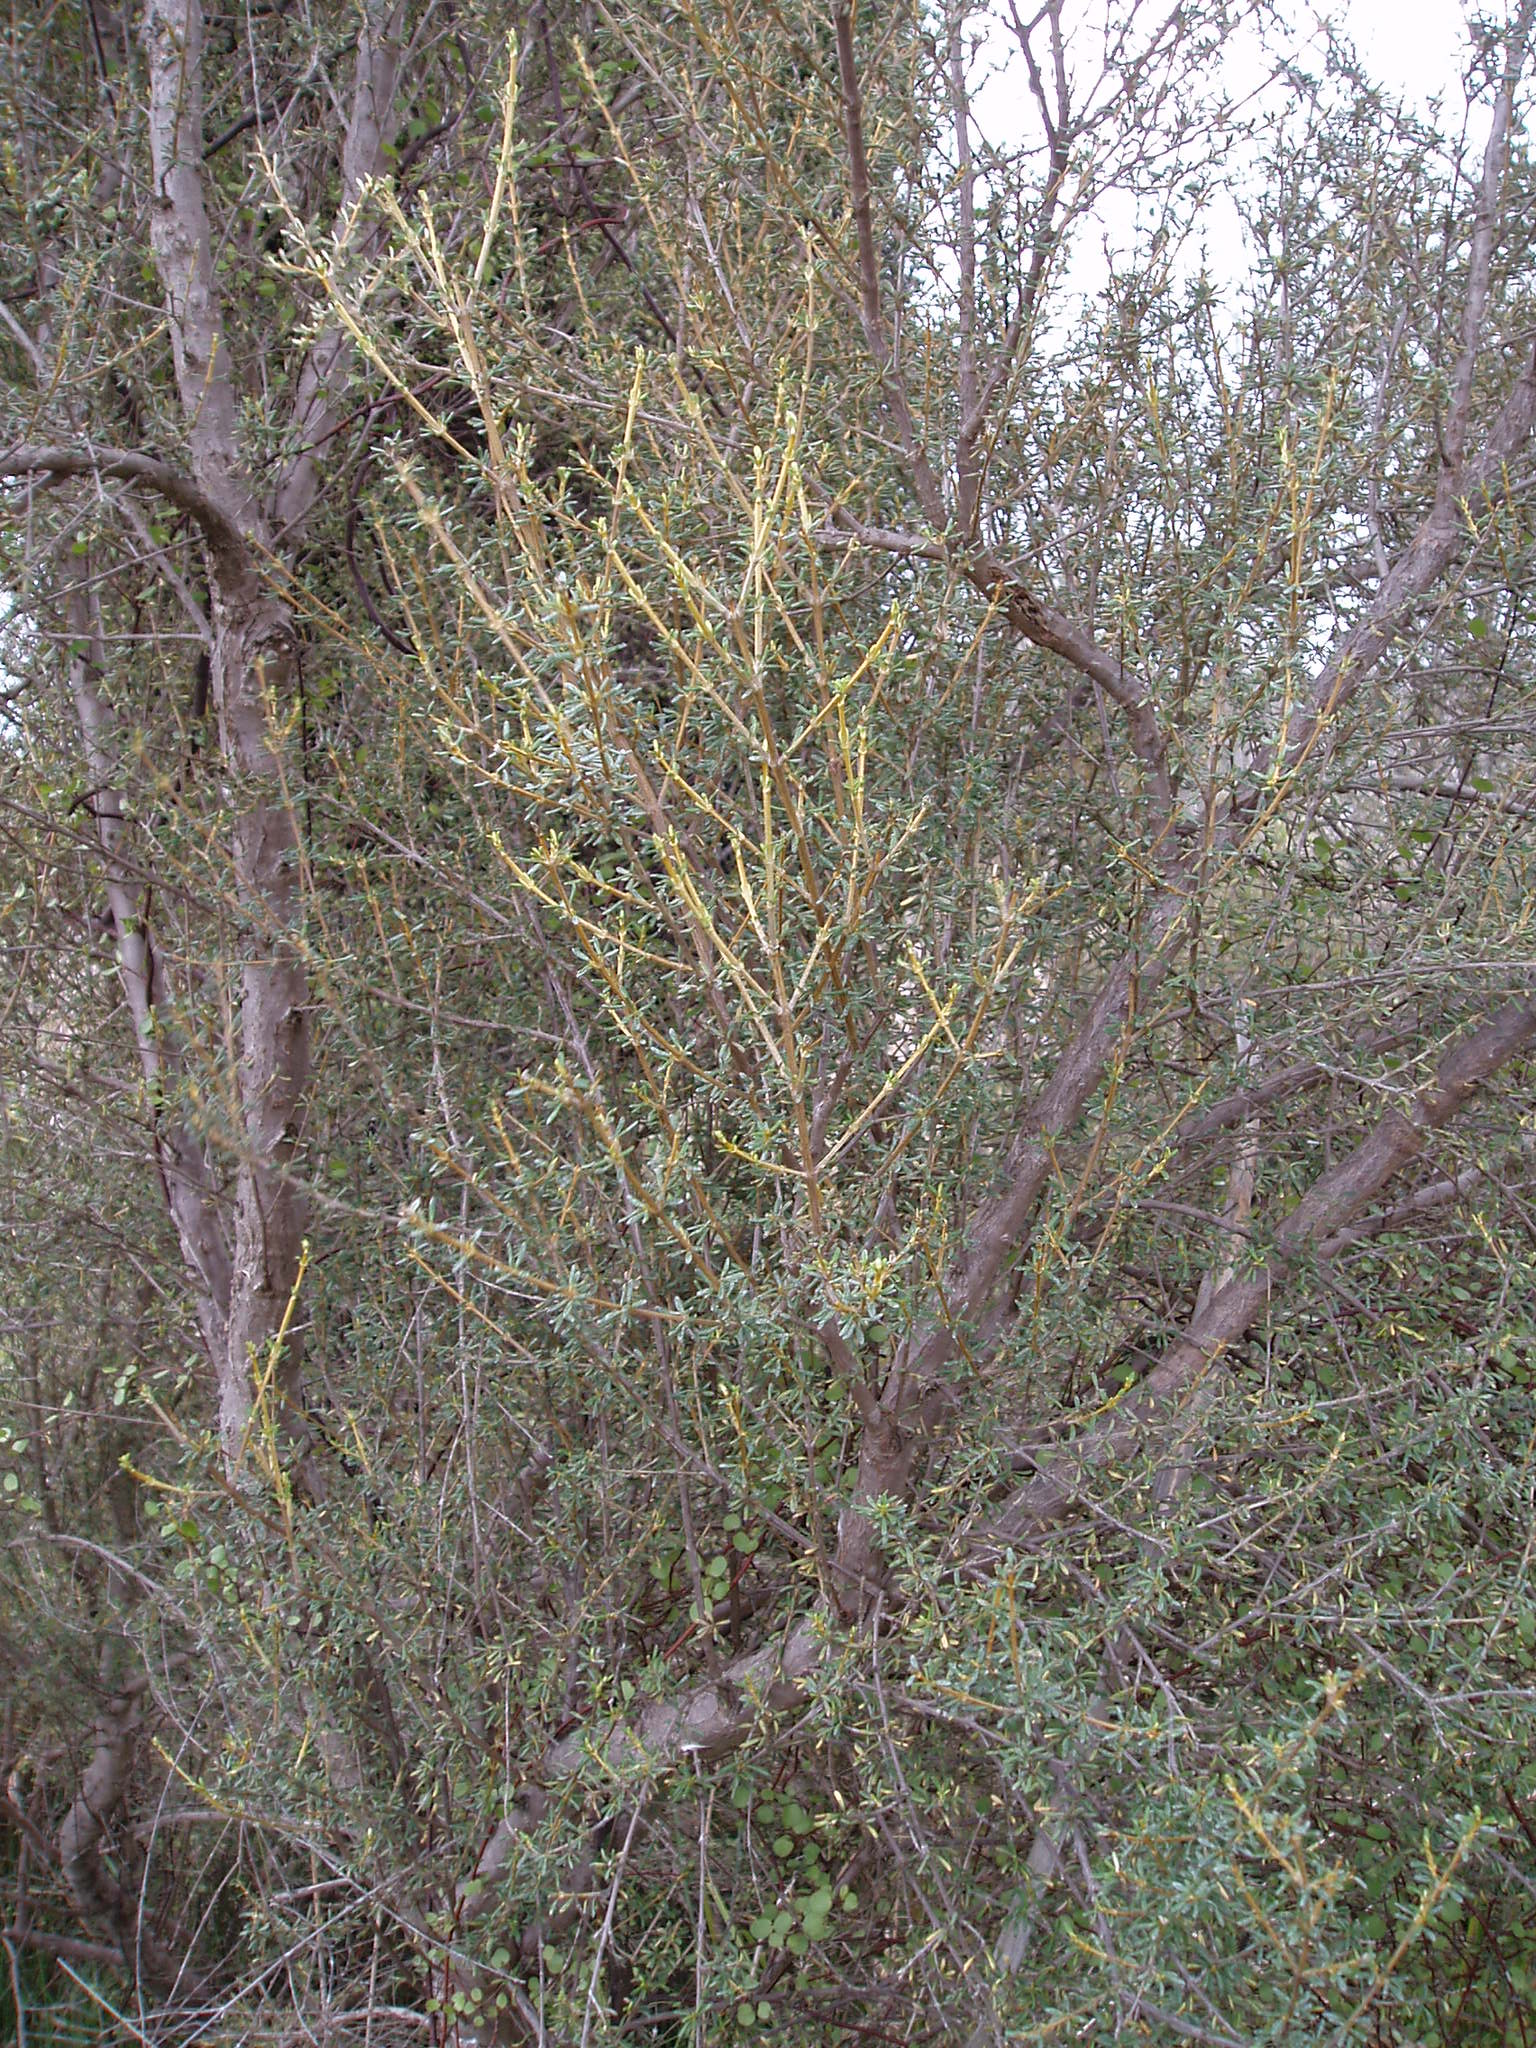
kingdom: Plantae
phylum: Tracheophyta
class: Magnoliopsida
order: Asterales
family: Asteraceae
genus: Olearia
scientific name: Olearia solandri
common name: Coastal daisybush
